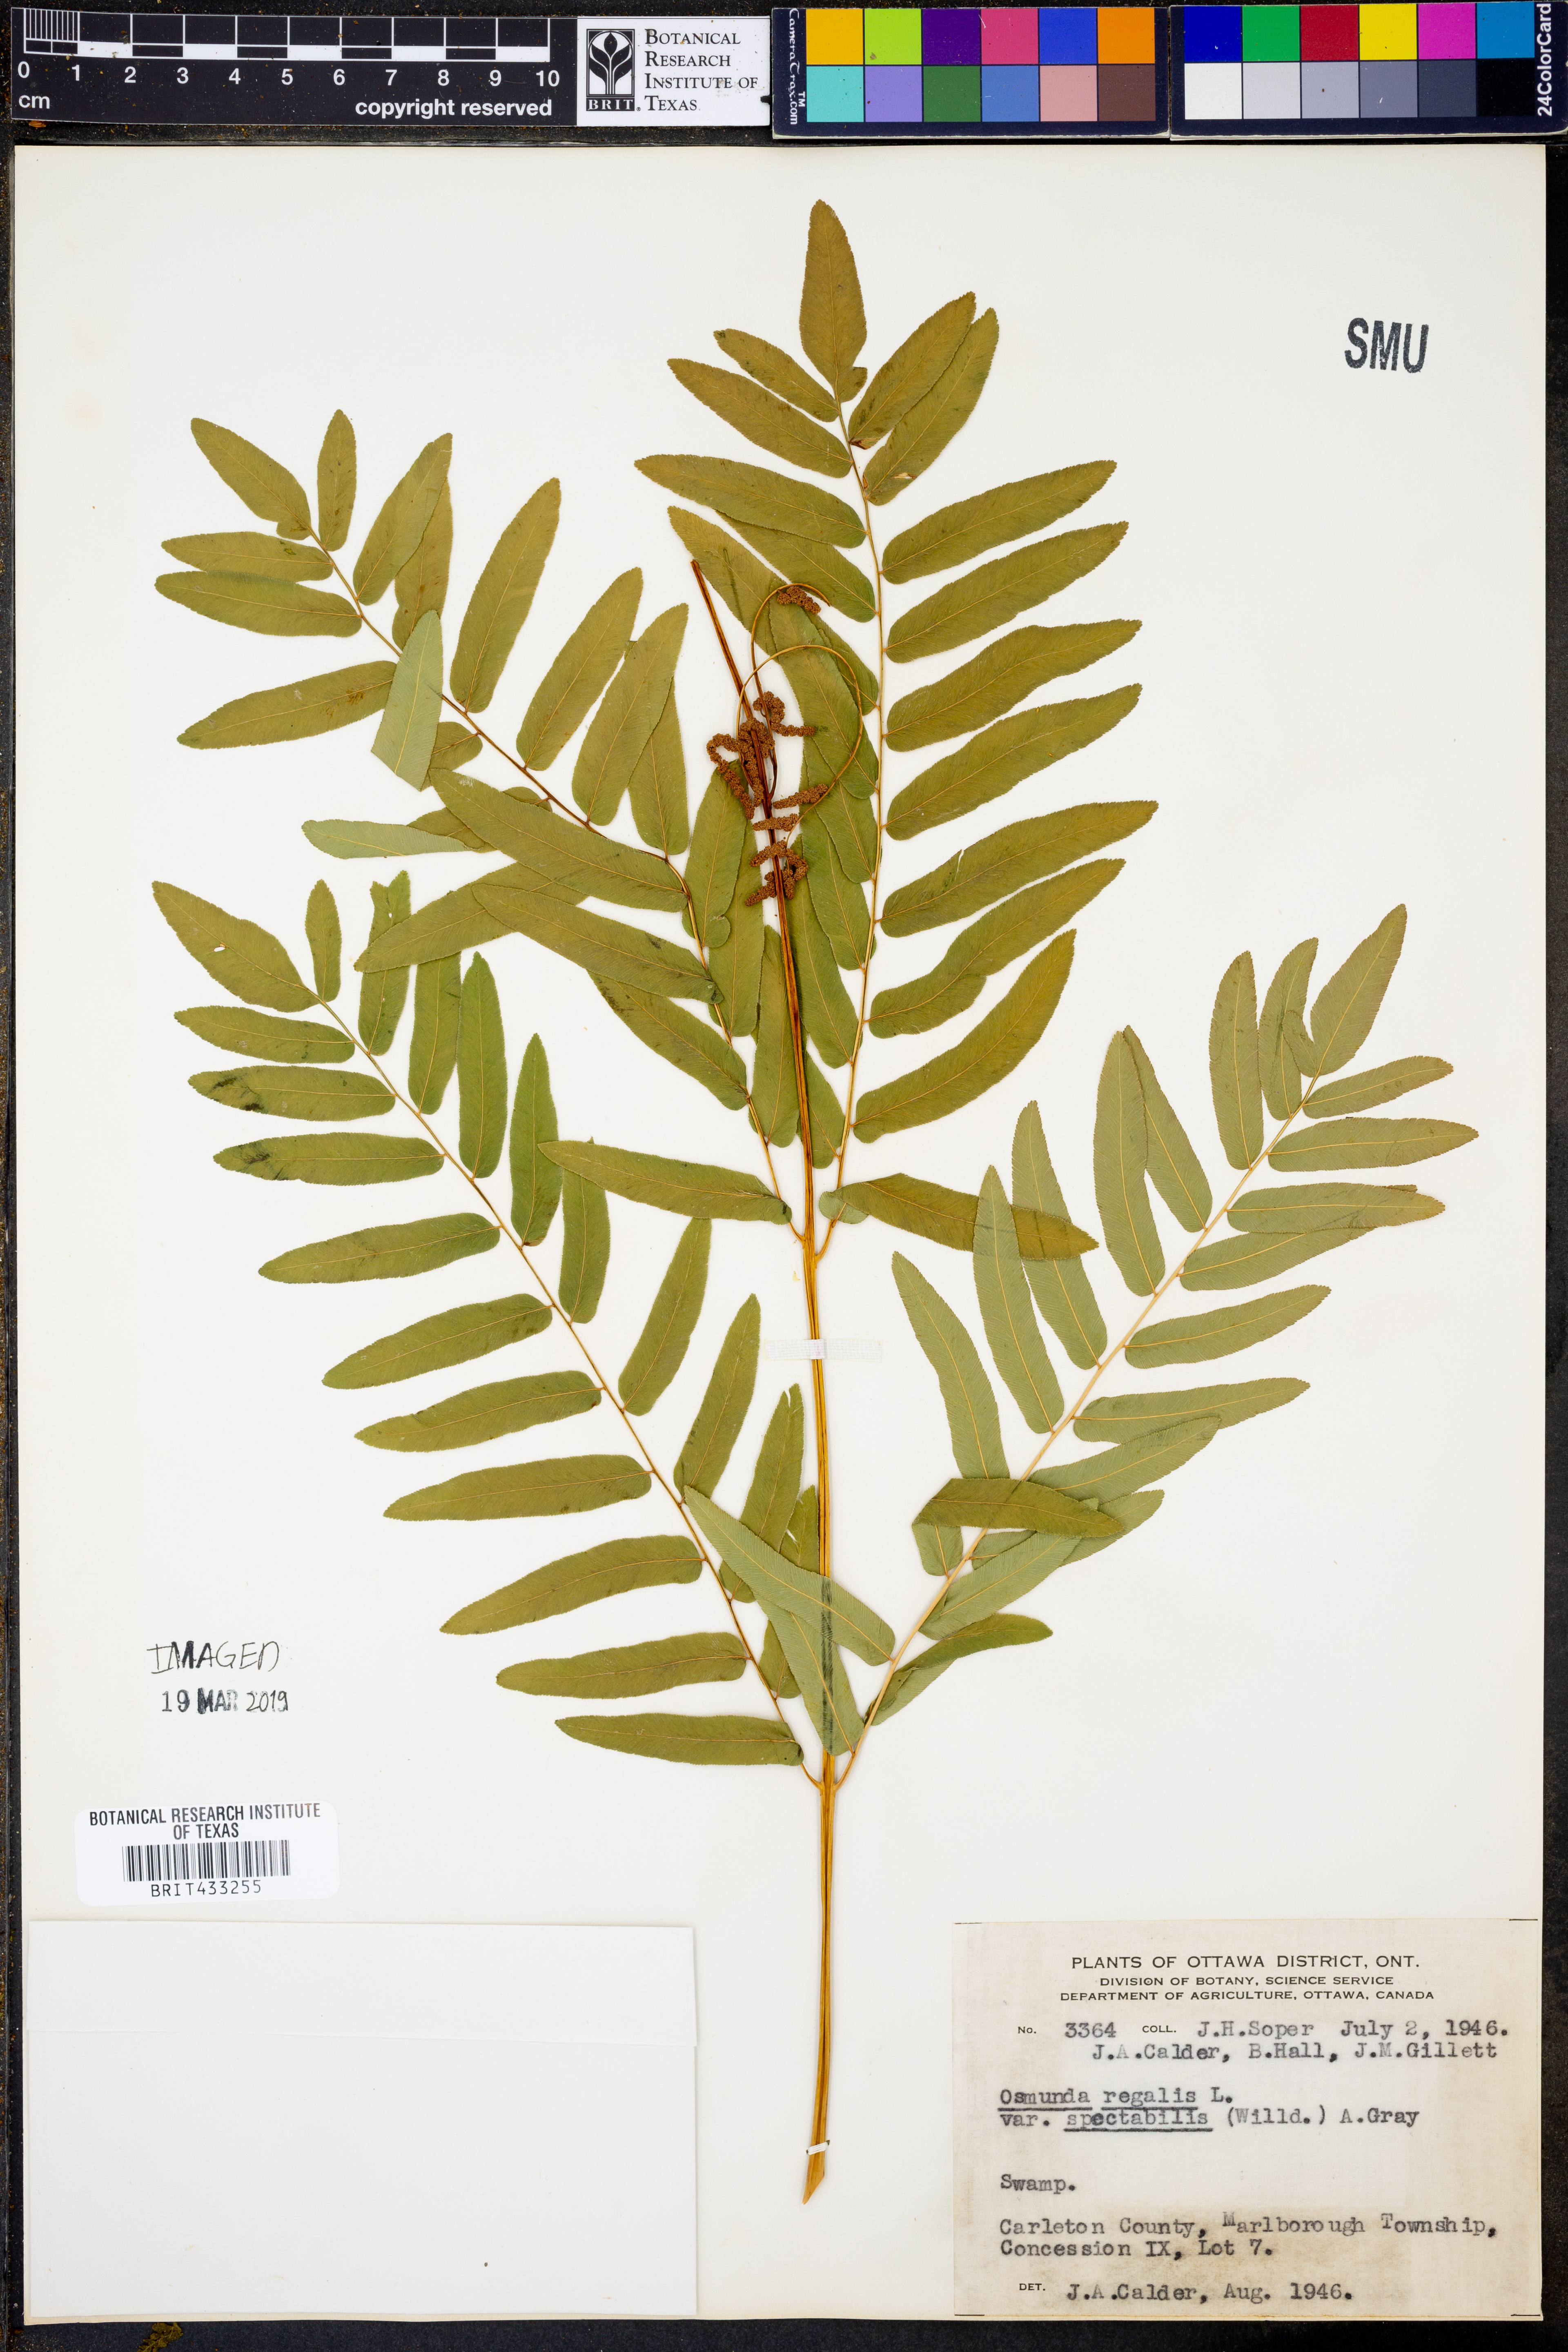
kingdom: Plantae
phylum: Tracheophyta
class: Polypodiopsida
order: Osmundales
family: Osmundaceae
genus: Osmunda
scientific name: Osmunda spectabilis
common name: American royal fern
